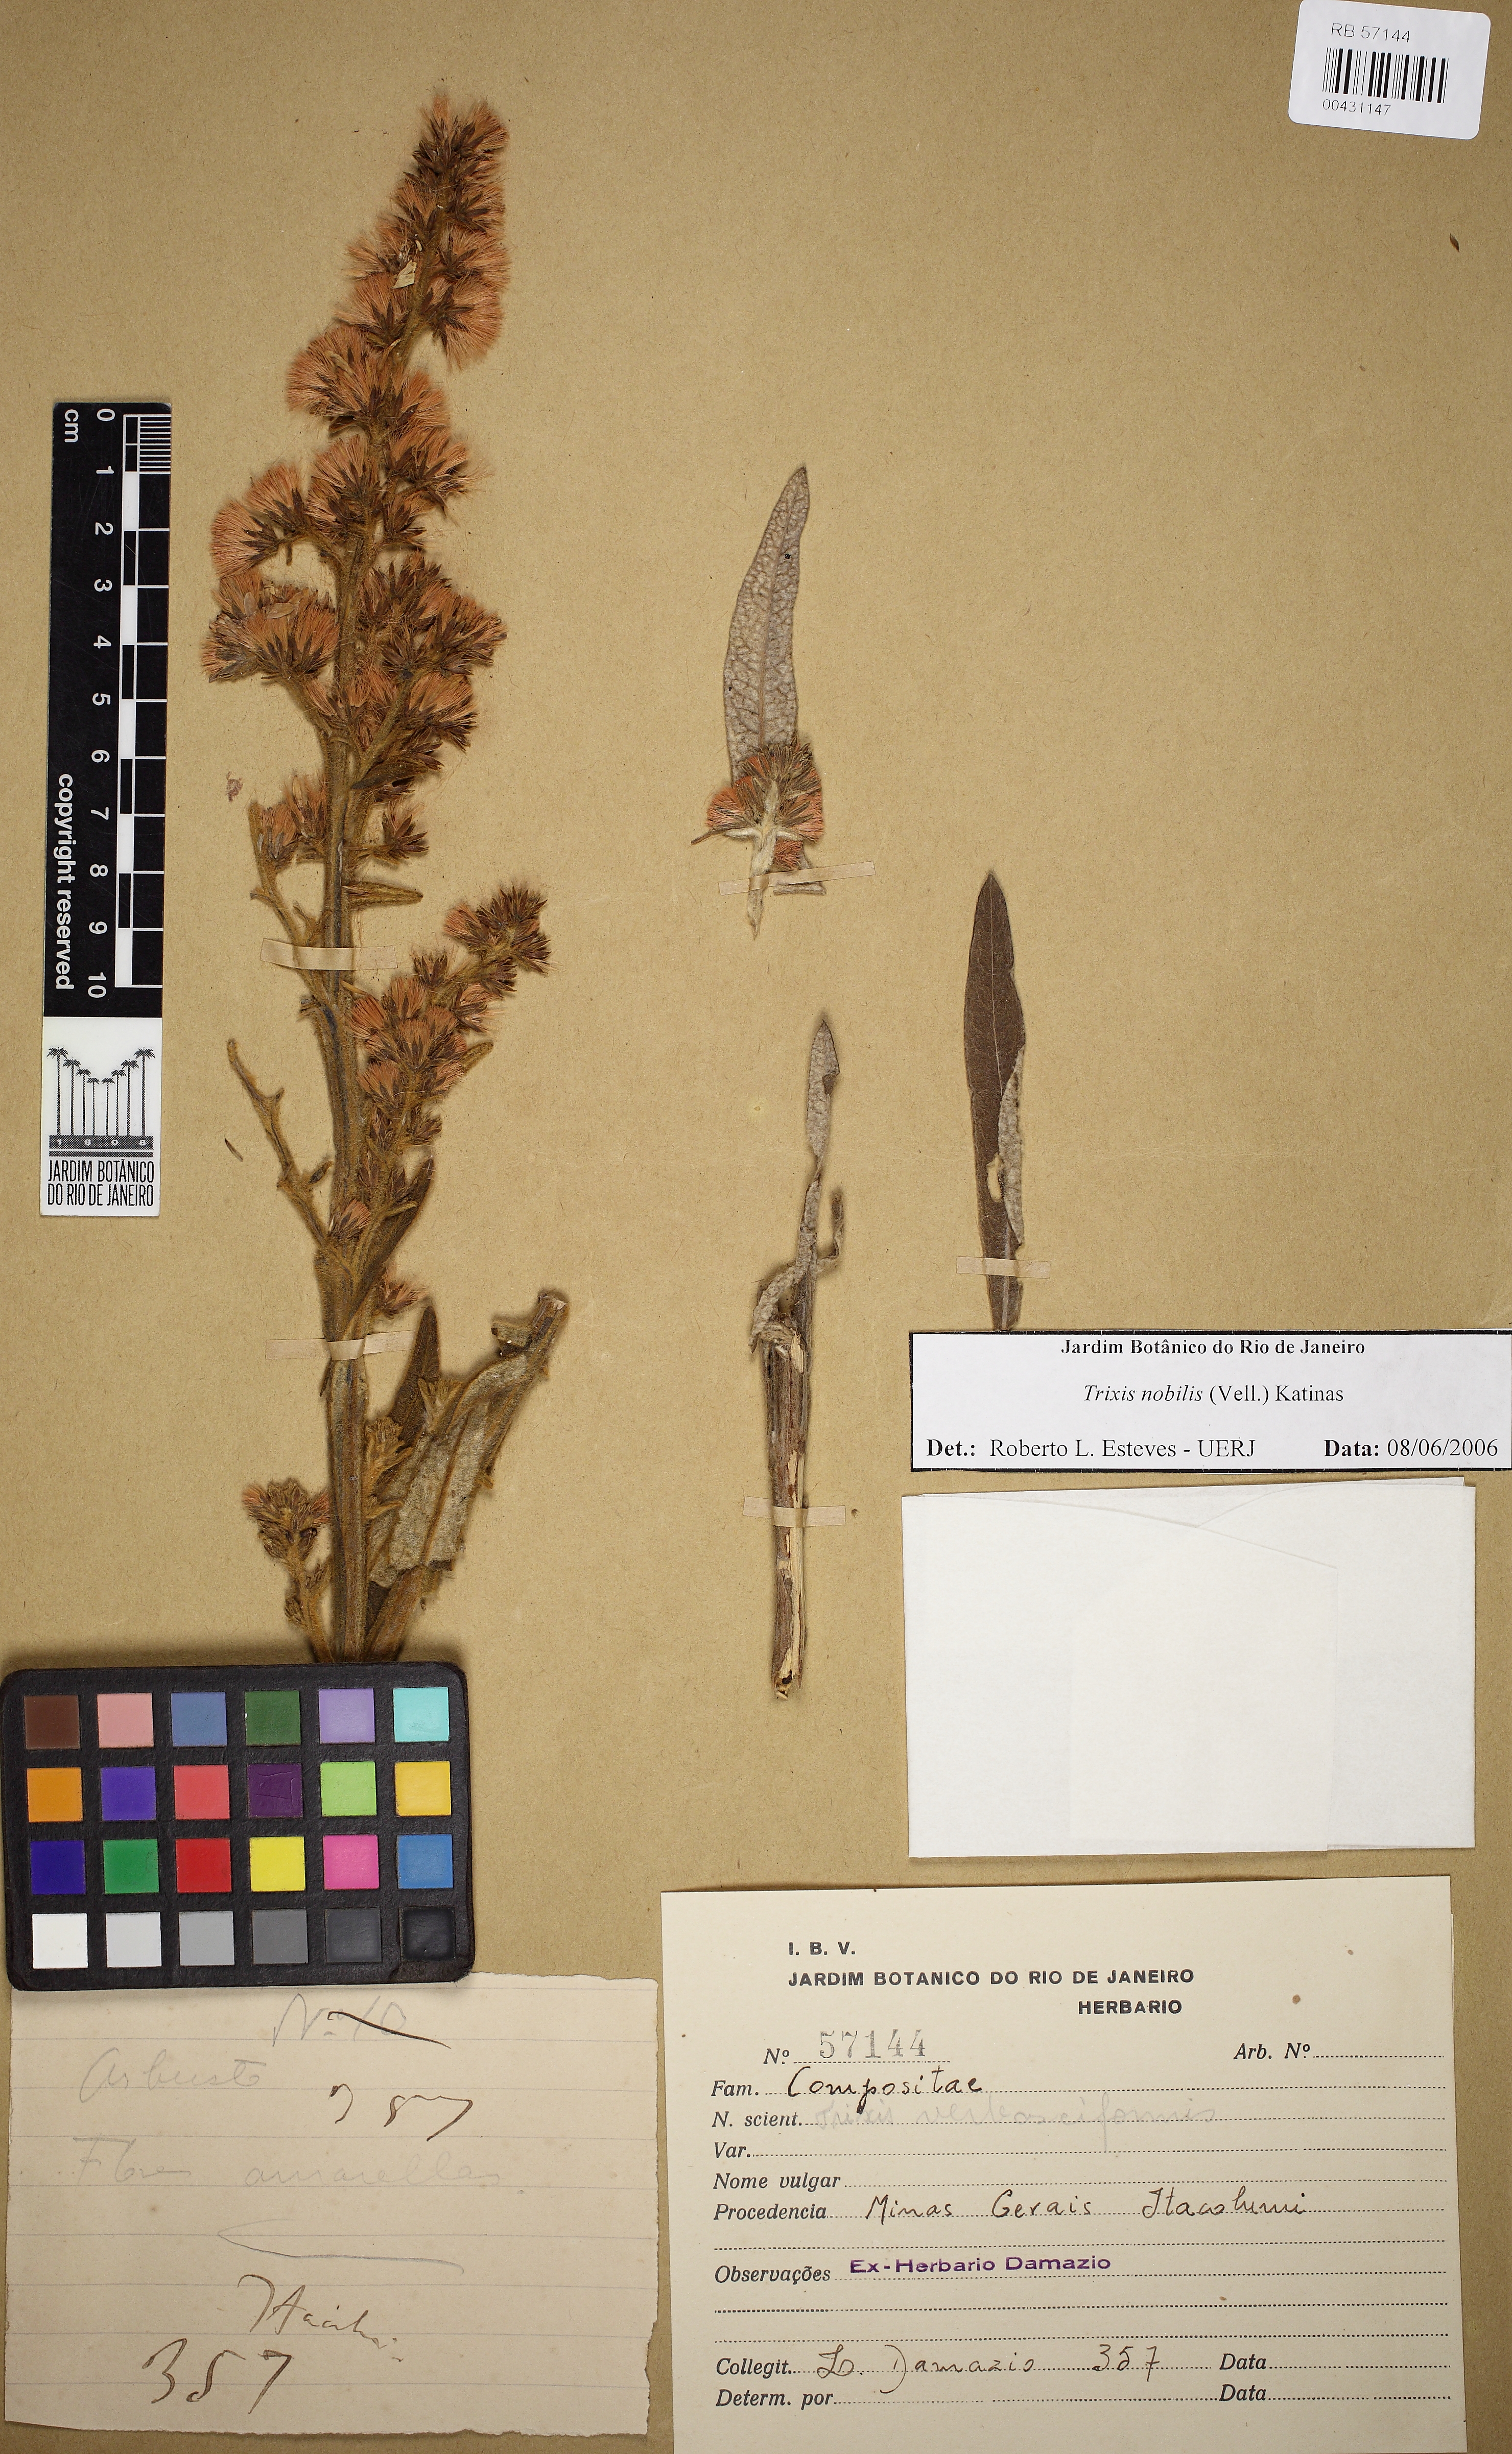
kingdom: Plantae
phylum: Tracheophyta
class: Magnoliopsida
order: Asterales
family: Asteraceae
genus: Trixis
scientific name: Trixis nobilis
